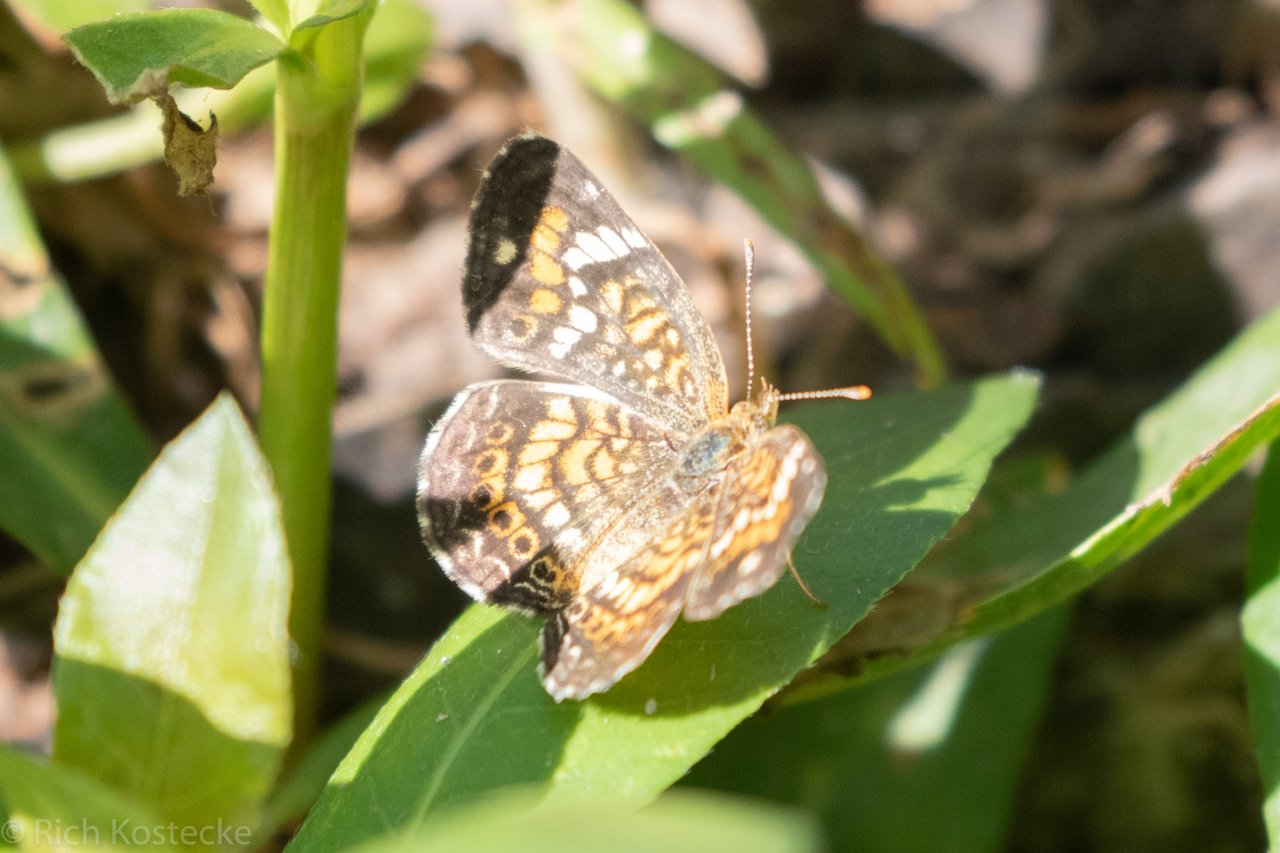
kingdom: Animalia
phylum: Arthropoda
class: Insecta
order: Lepidoptera
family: Nymphalidae
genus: Phyciodes
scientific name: Phyciodes phaon
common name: Phaon Crescent
